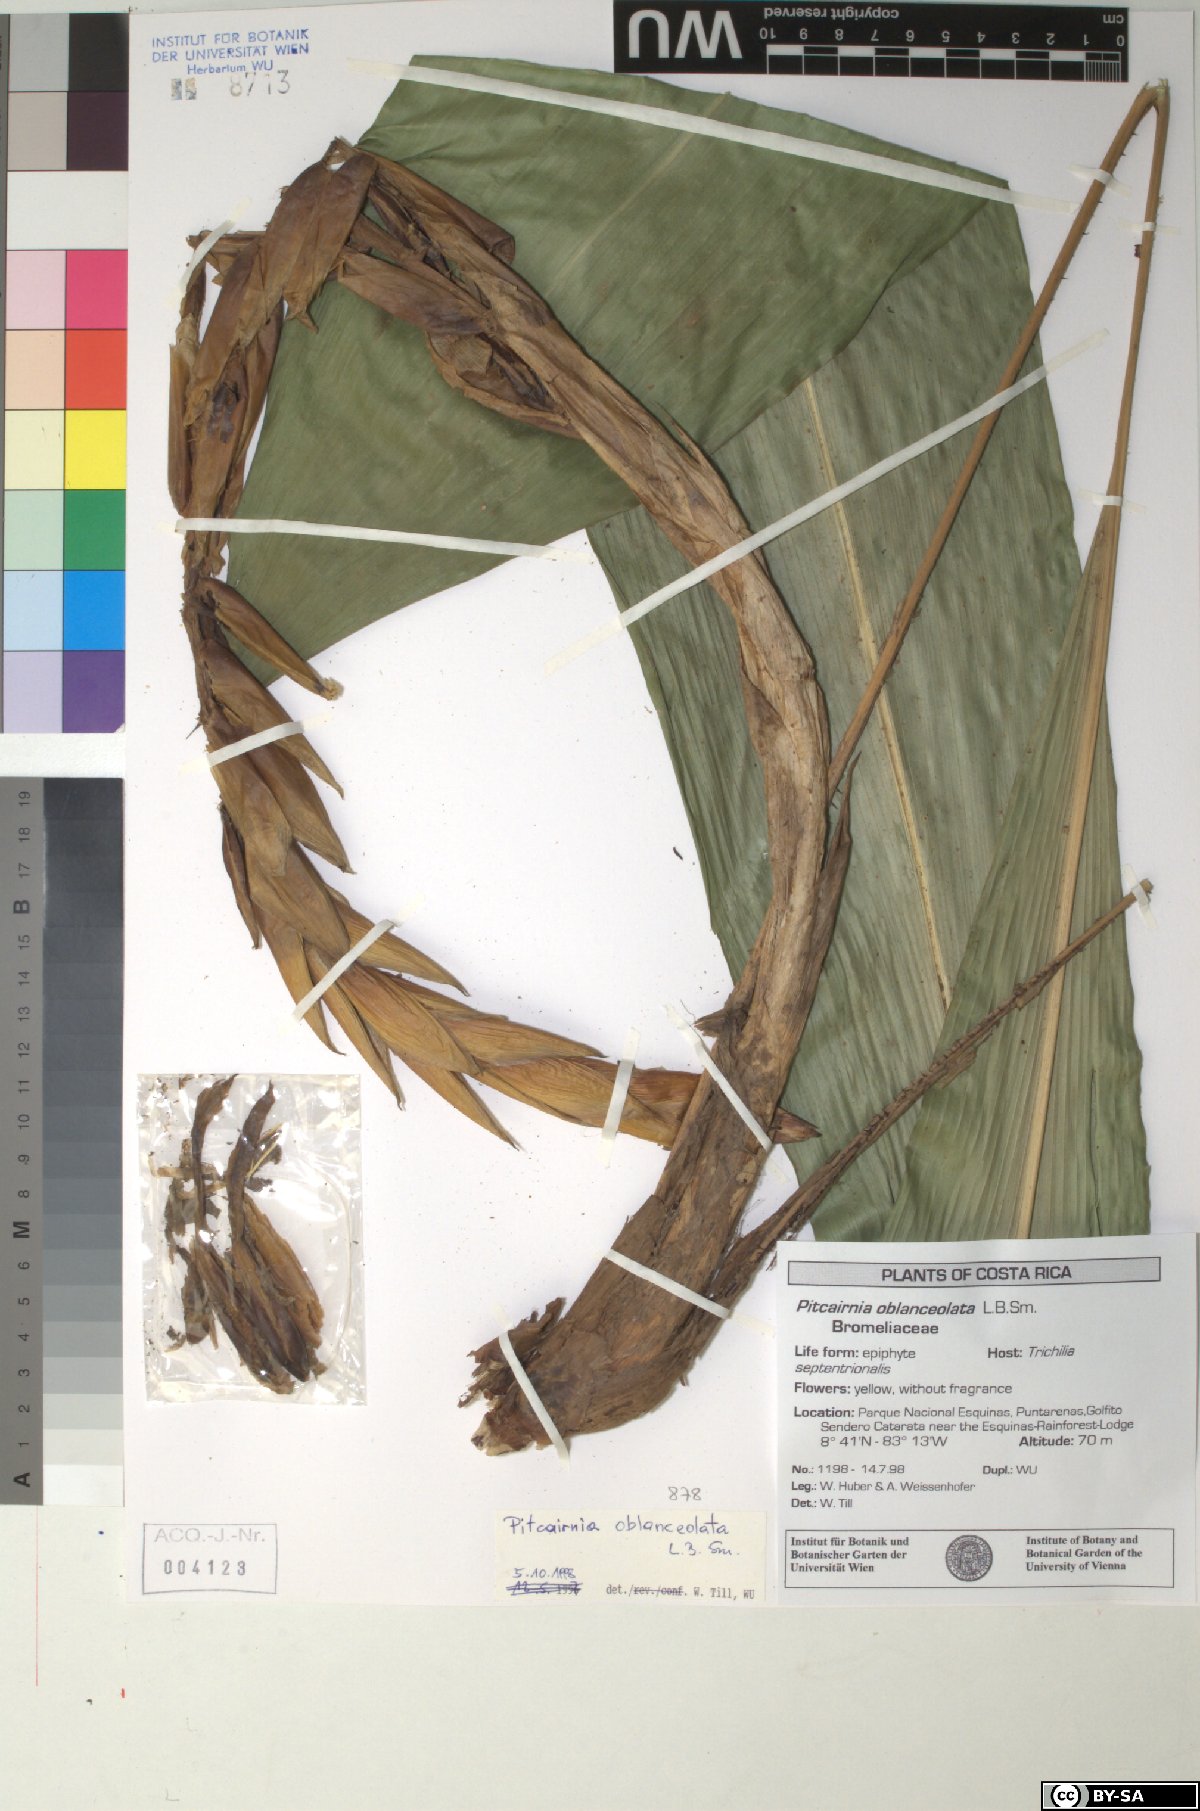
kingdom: Plantae
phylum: Tracheophyta
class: Liliopsida
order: Poales
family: Bromeliaceae
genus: Pitcairnia
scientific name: Pitcairnia arcuata
